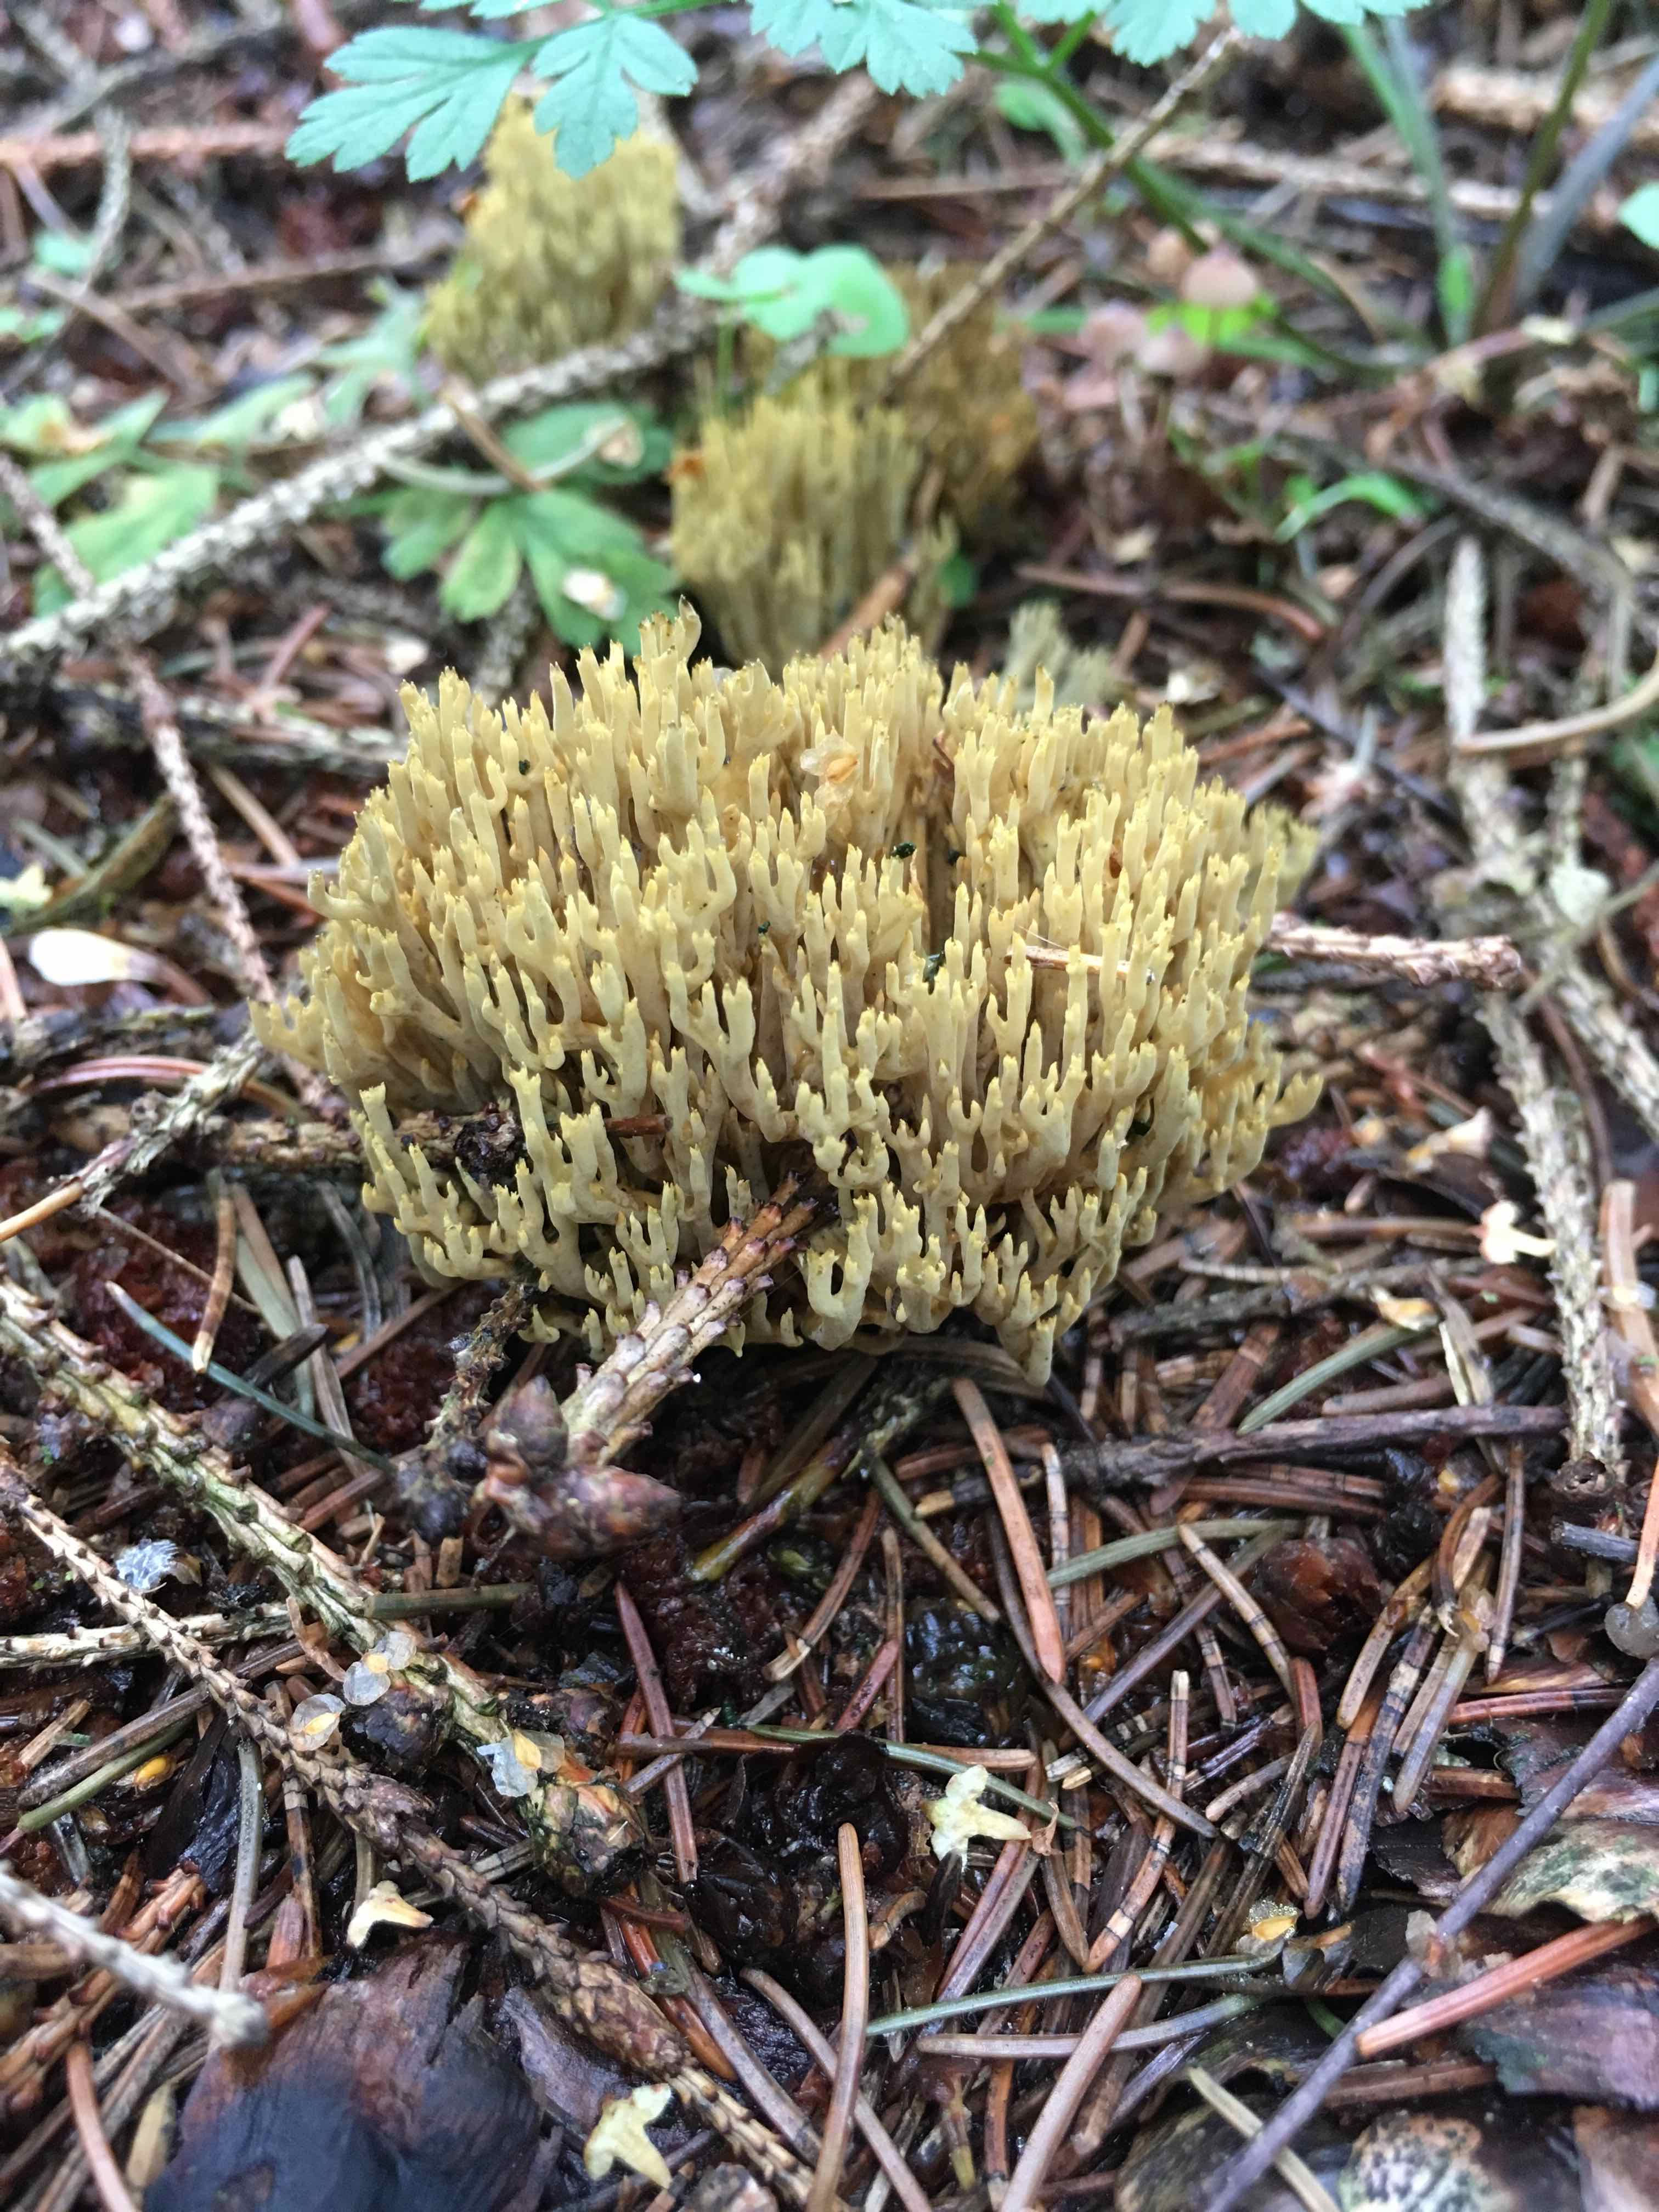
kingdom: Fungi
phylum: Basidiomycota
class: Agaricomycetes
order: Gomphales
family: Gomphaceae
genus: Phaeoclavulina
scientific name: Phaeoclavulina eumorpha
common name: gran-koralsvamp
